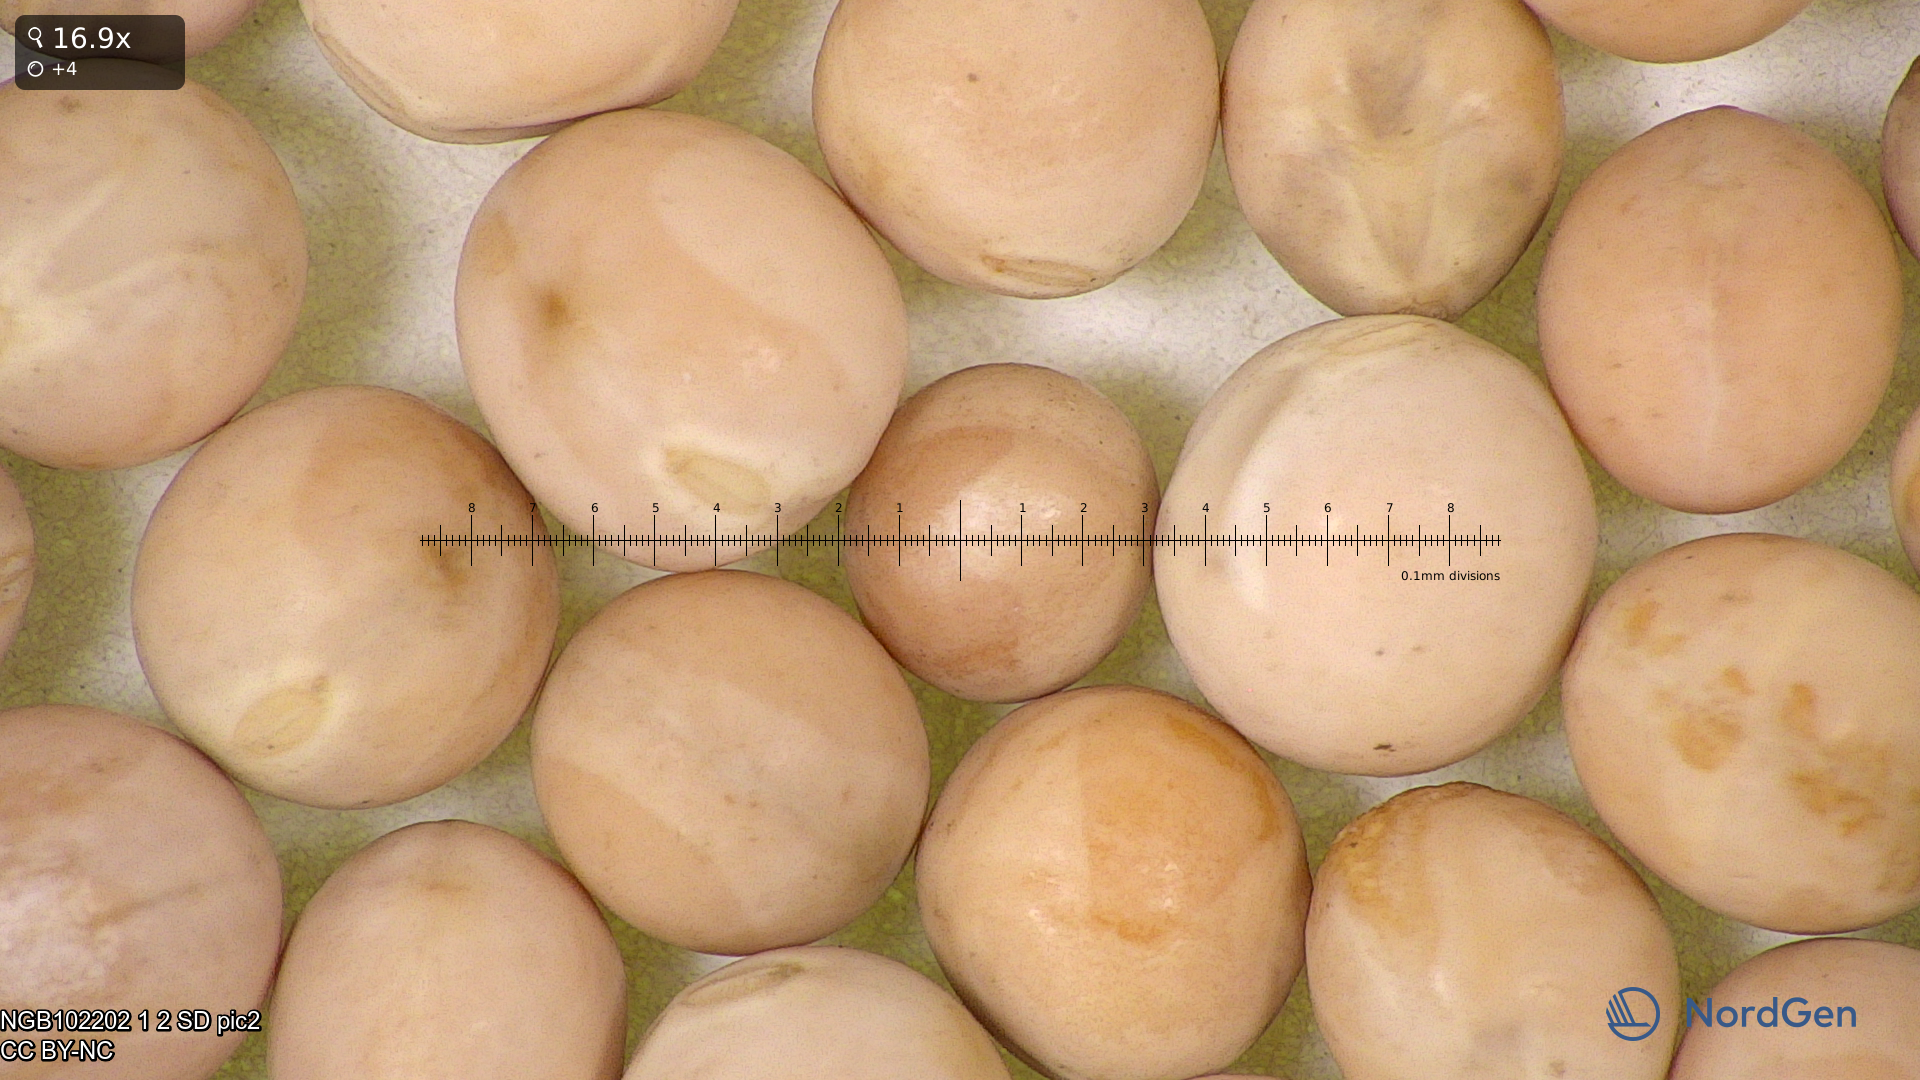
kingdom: Plantae
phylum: Tracheophyta
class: Magnoliopsida
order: Fabales
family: Fabaceae
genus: Lathyrus
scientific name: Lathyrus oleraceus
